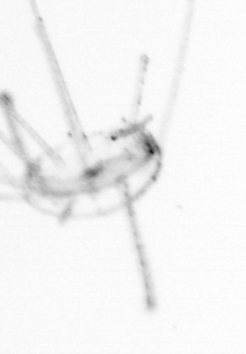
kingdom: Animalia
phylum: Cnidaria
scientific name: Cnidaria
